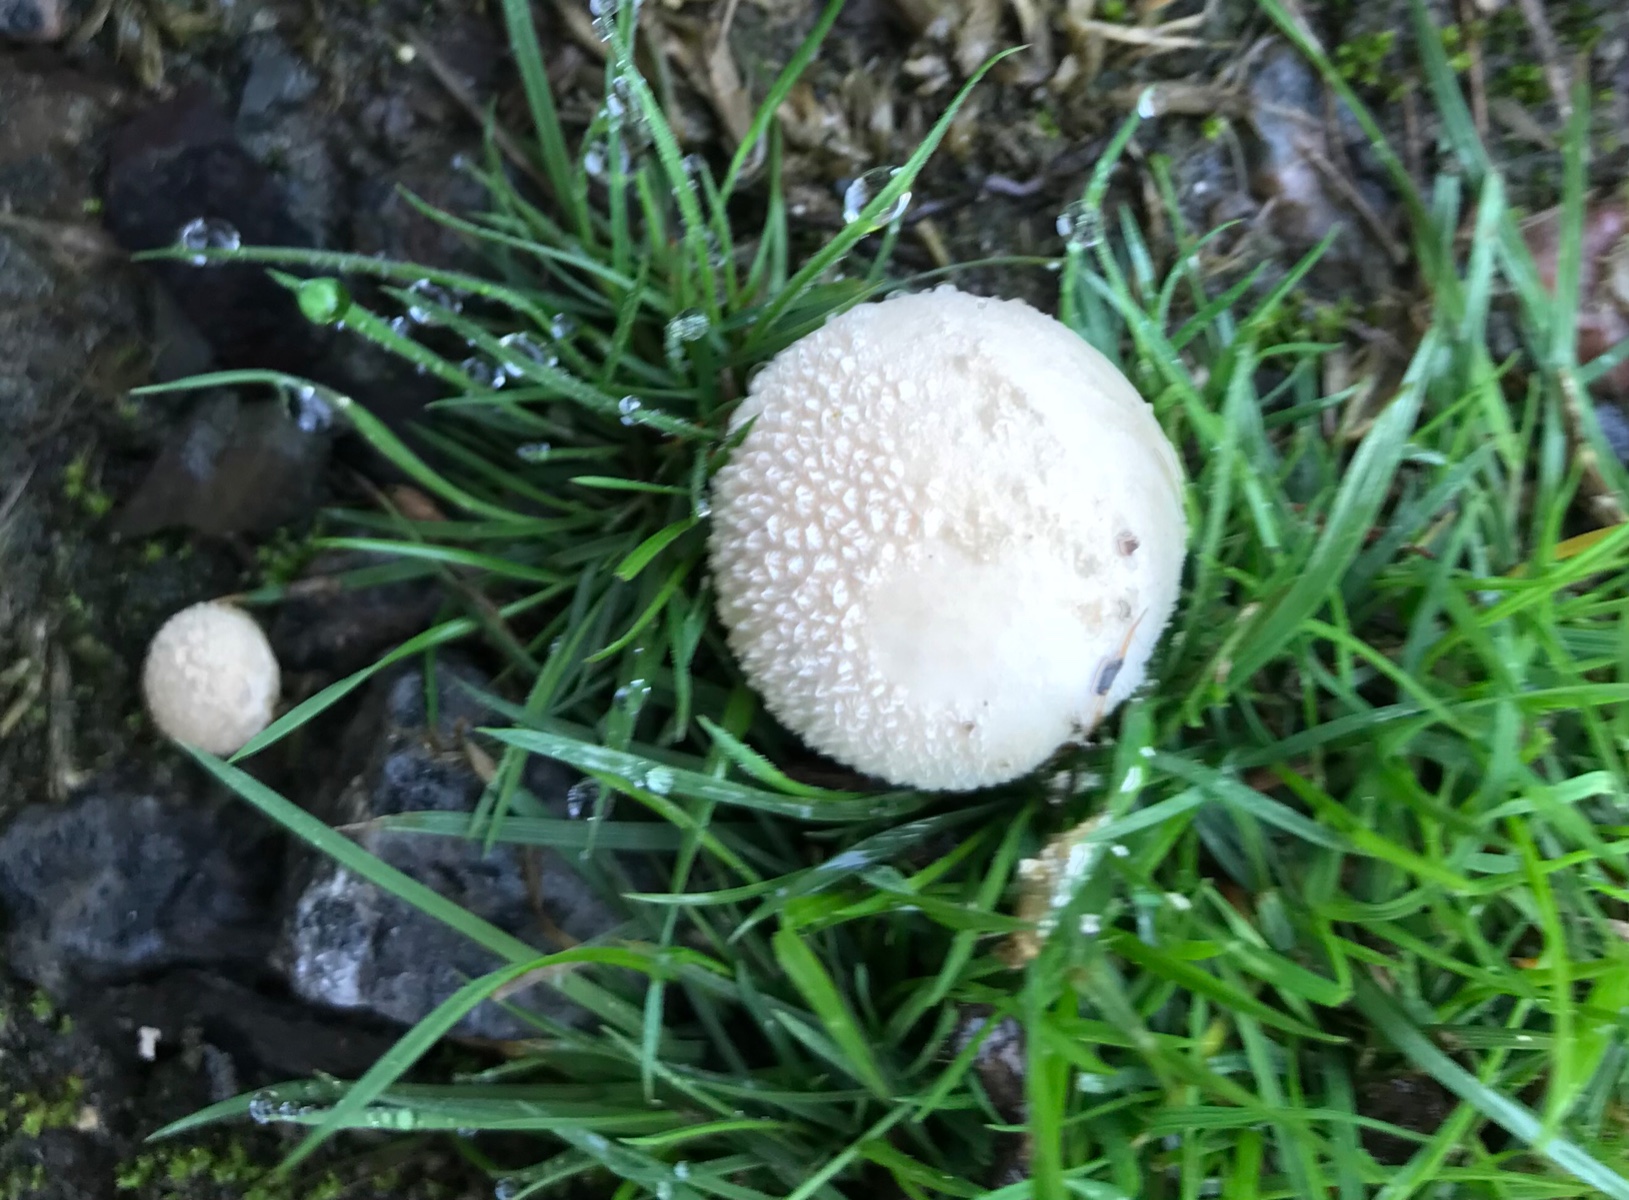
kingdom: Fungi
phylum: Basidiomycota
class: Agaricomycetes
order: Agaricales
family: Agaricaceae
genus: Lycoperdon
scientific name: Lycoperdon
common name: støvbold
